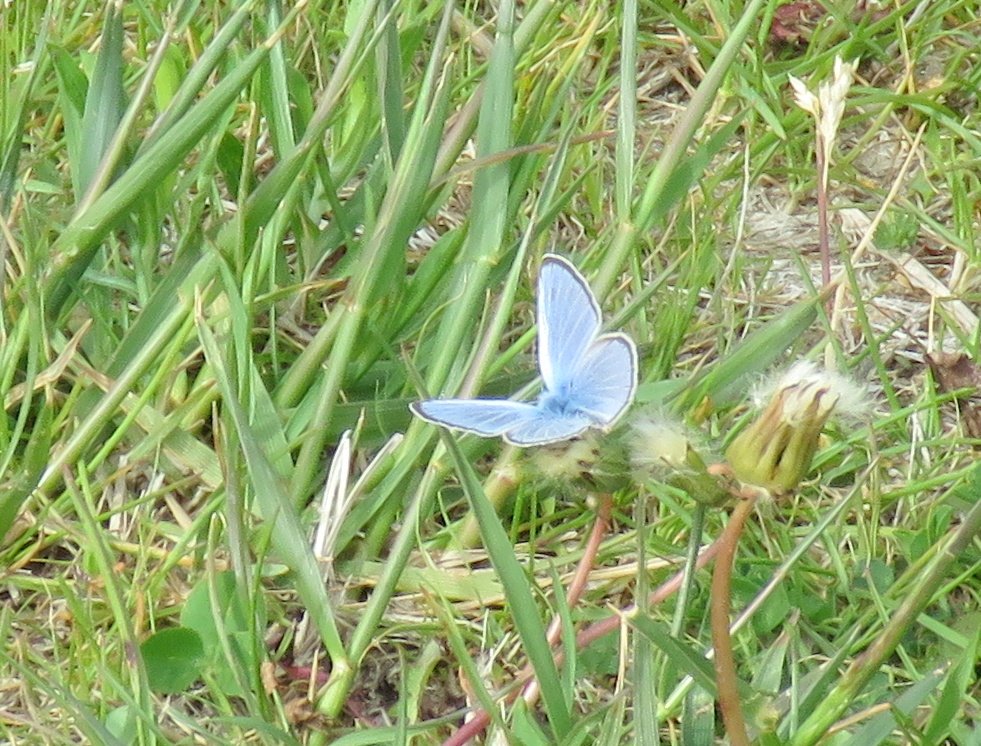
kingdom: Animalia
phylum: Arthropoda
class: Insecta
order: Lepidoptera
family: Lycaenidae
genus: Glaucopsyche
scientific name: Glaucopsyche lygdamus
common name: Silvery Blue
